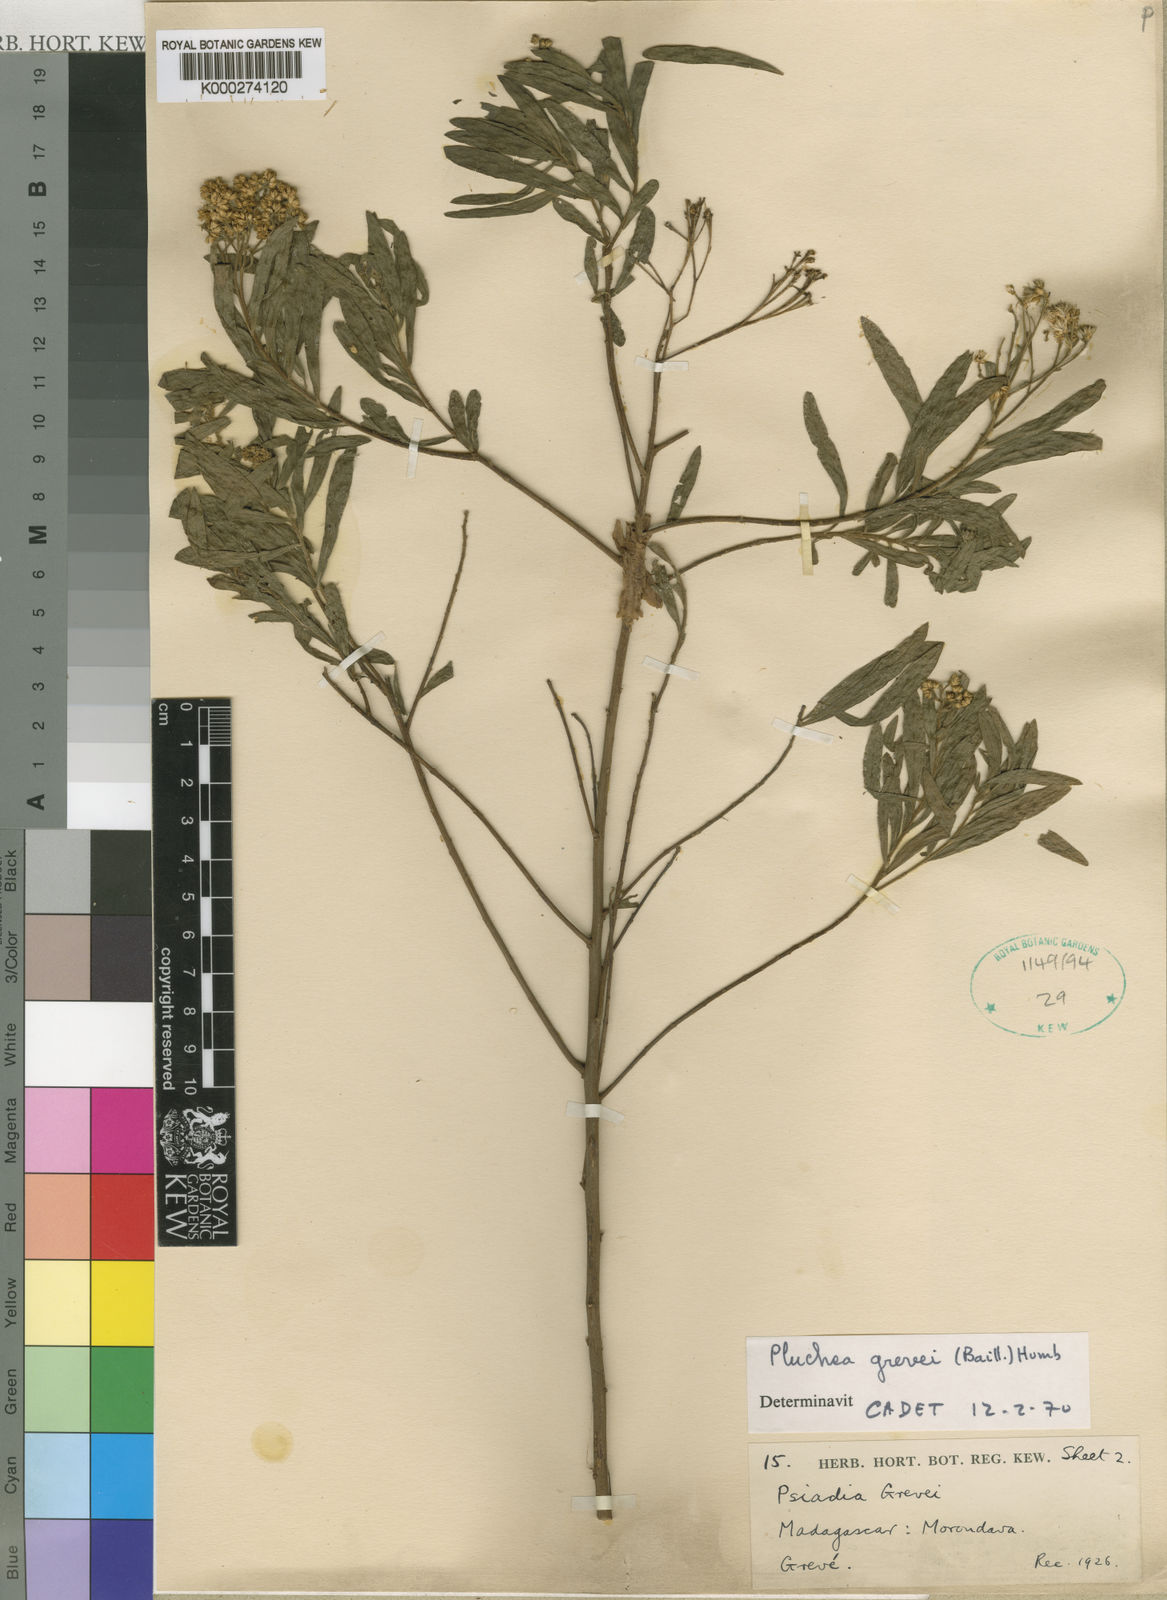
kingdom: Plantae
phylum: Tracheophyta
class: Magnoliopsida
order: Asterales
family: Asteraceae
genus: Pluchea
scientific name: Pluchea grevei
